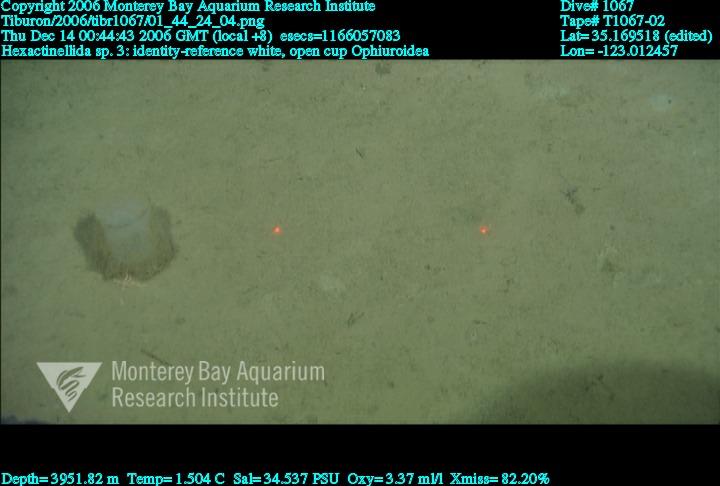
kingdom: Animalia
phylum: Porifera
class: Hexactinellida
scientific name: Hexactinellida
